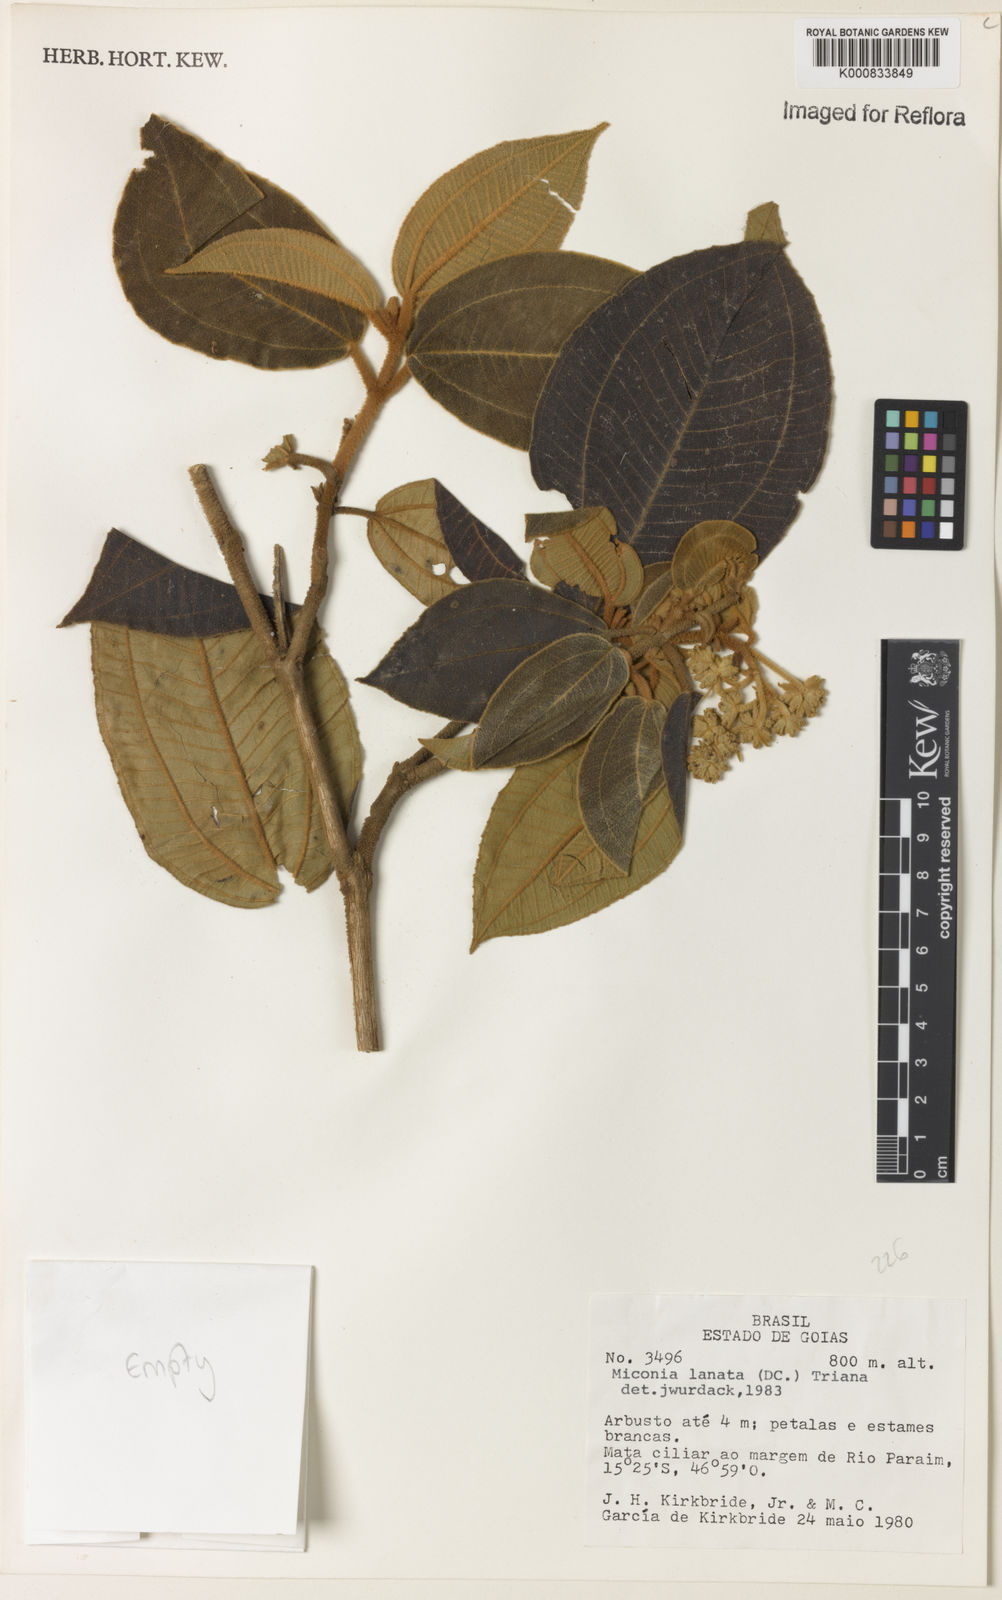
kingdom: Plantae
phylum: Tracheophyta
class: Magnoliopsida
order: Myrtales
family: Melastomataceae
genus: Miconia
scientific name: Miconia lanata
